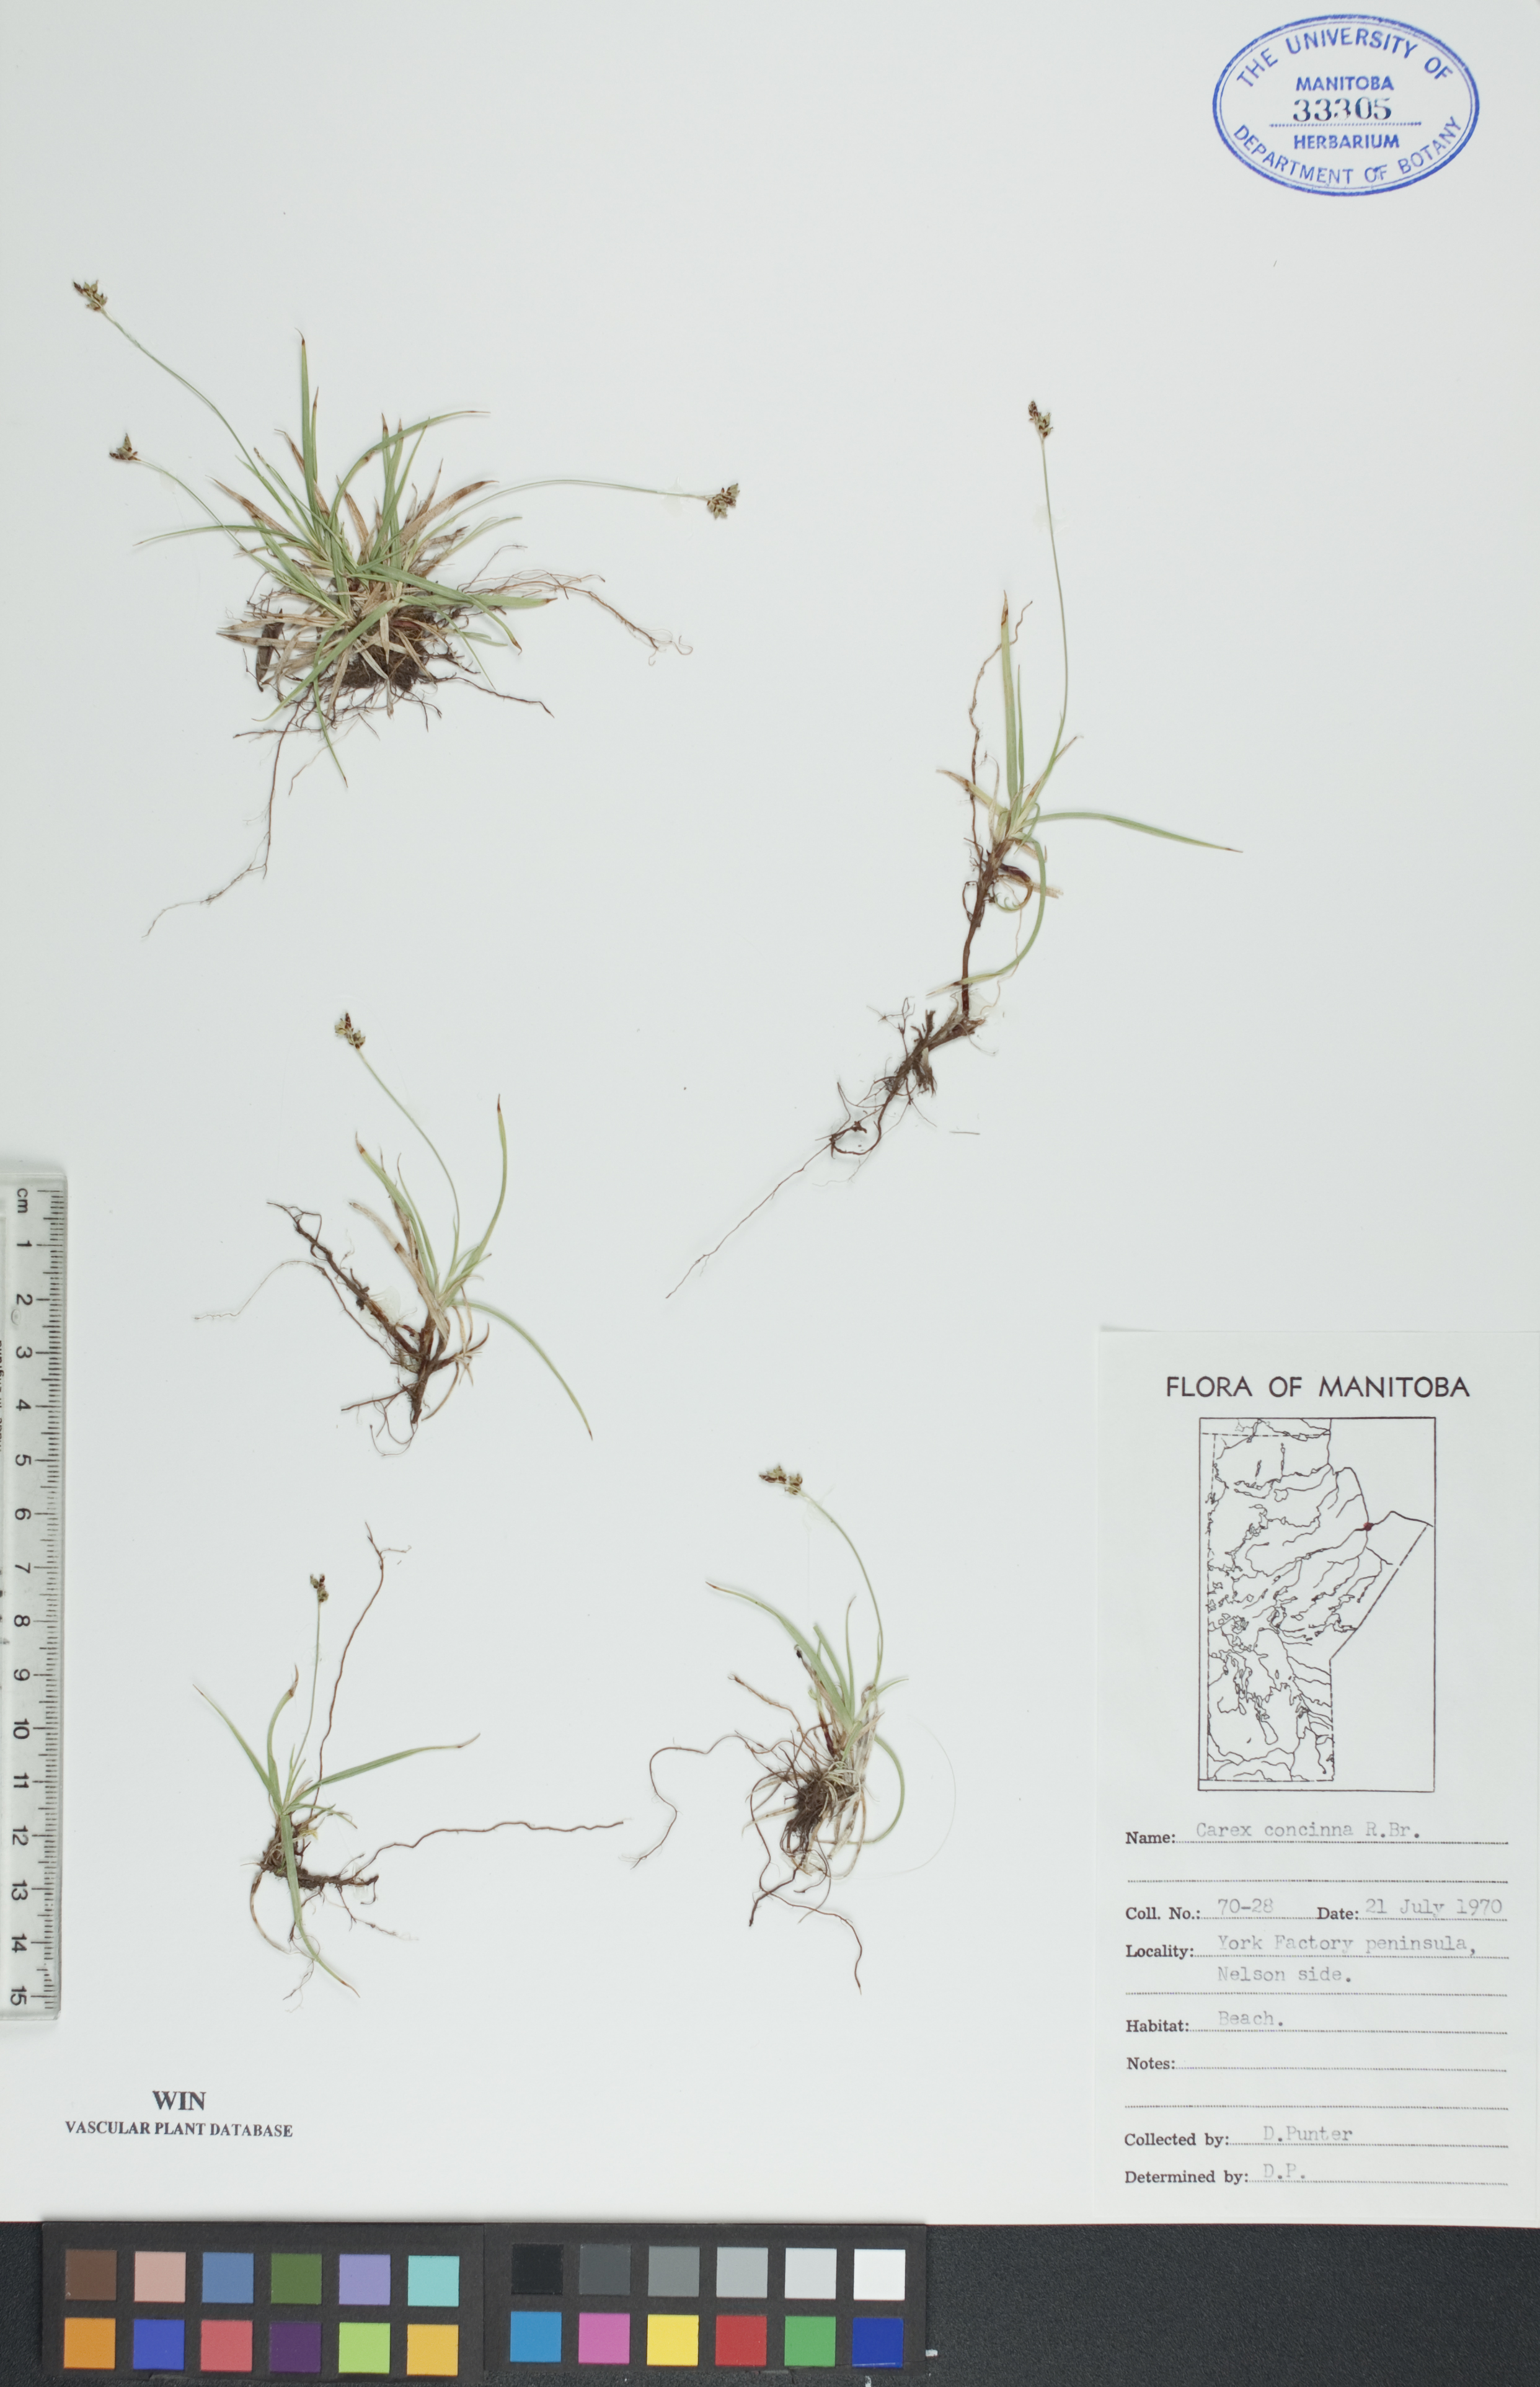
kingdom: Plantae
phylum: Tracheophyta
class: Liliopsida
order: Poales
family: Cyperaceae
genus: Carex
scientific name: Carex concinna
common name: Beautiful sedge
